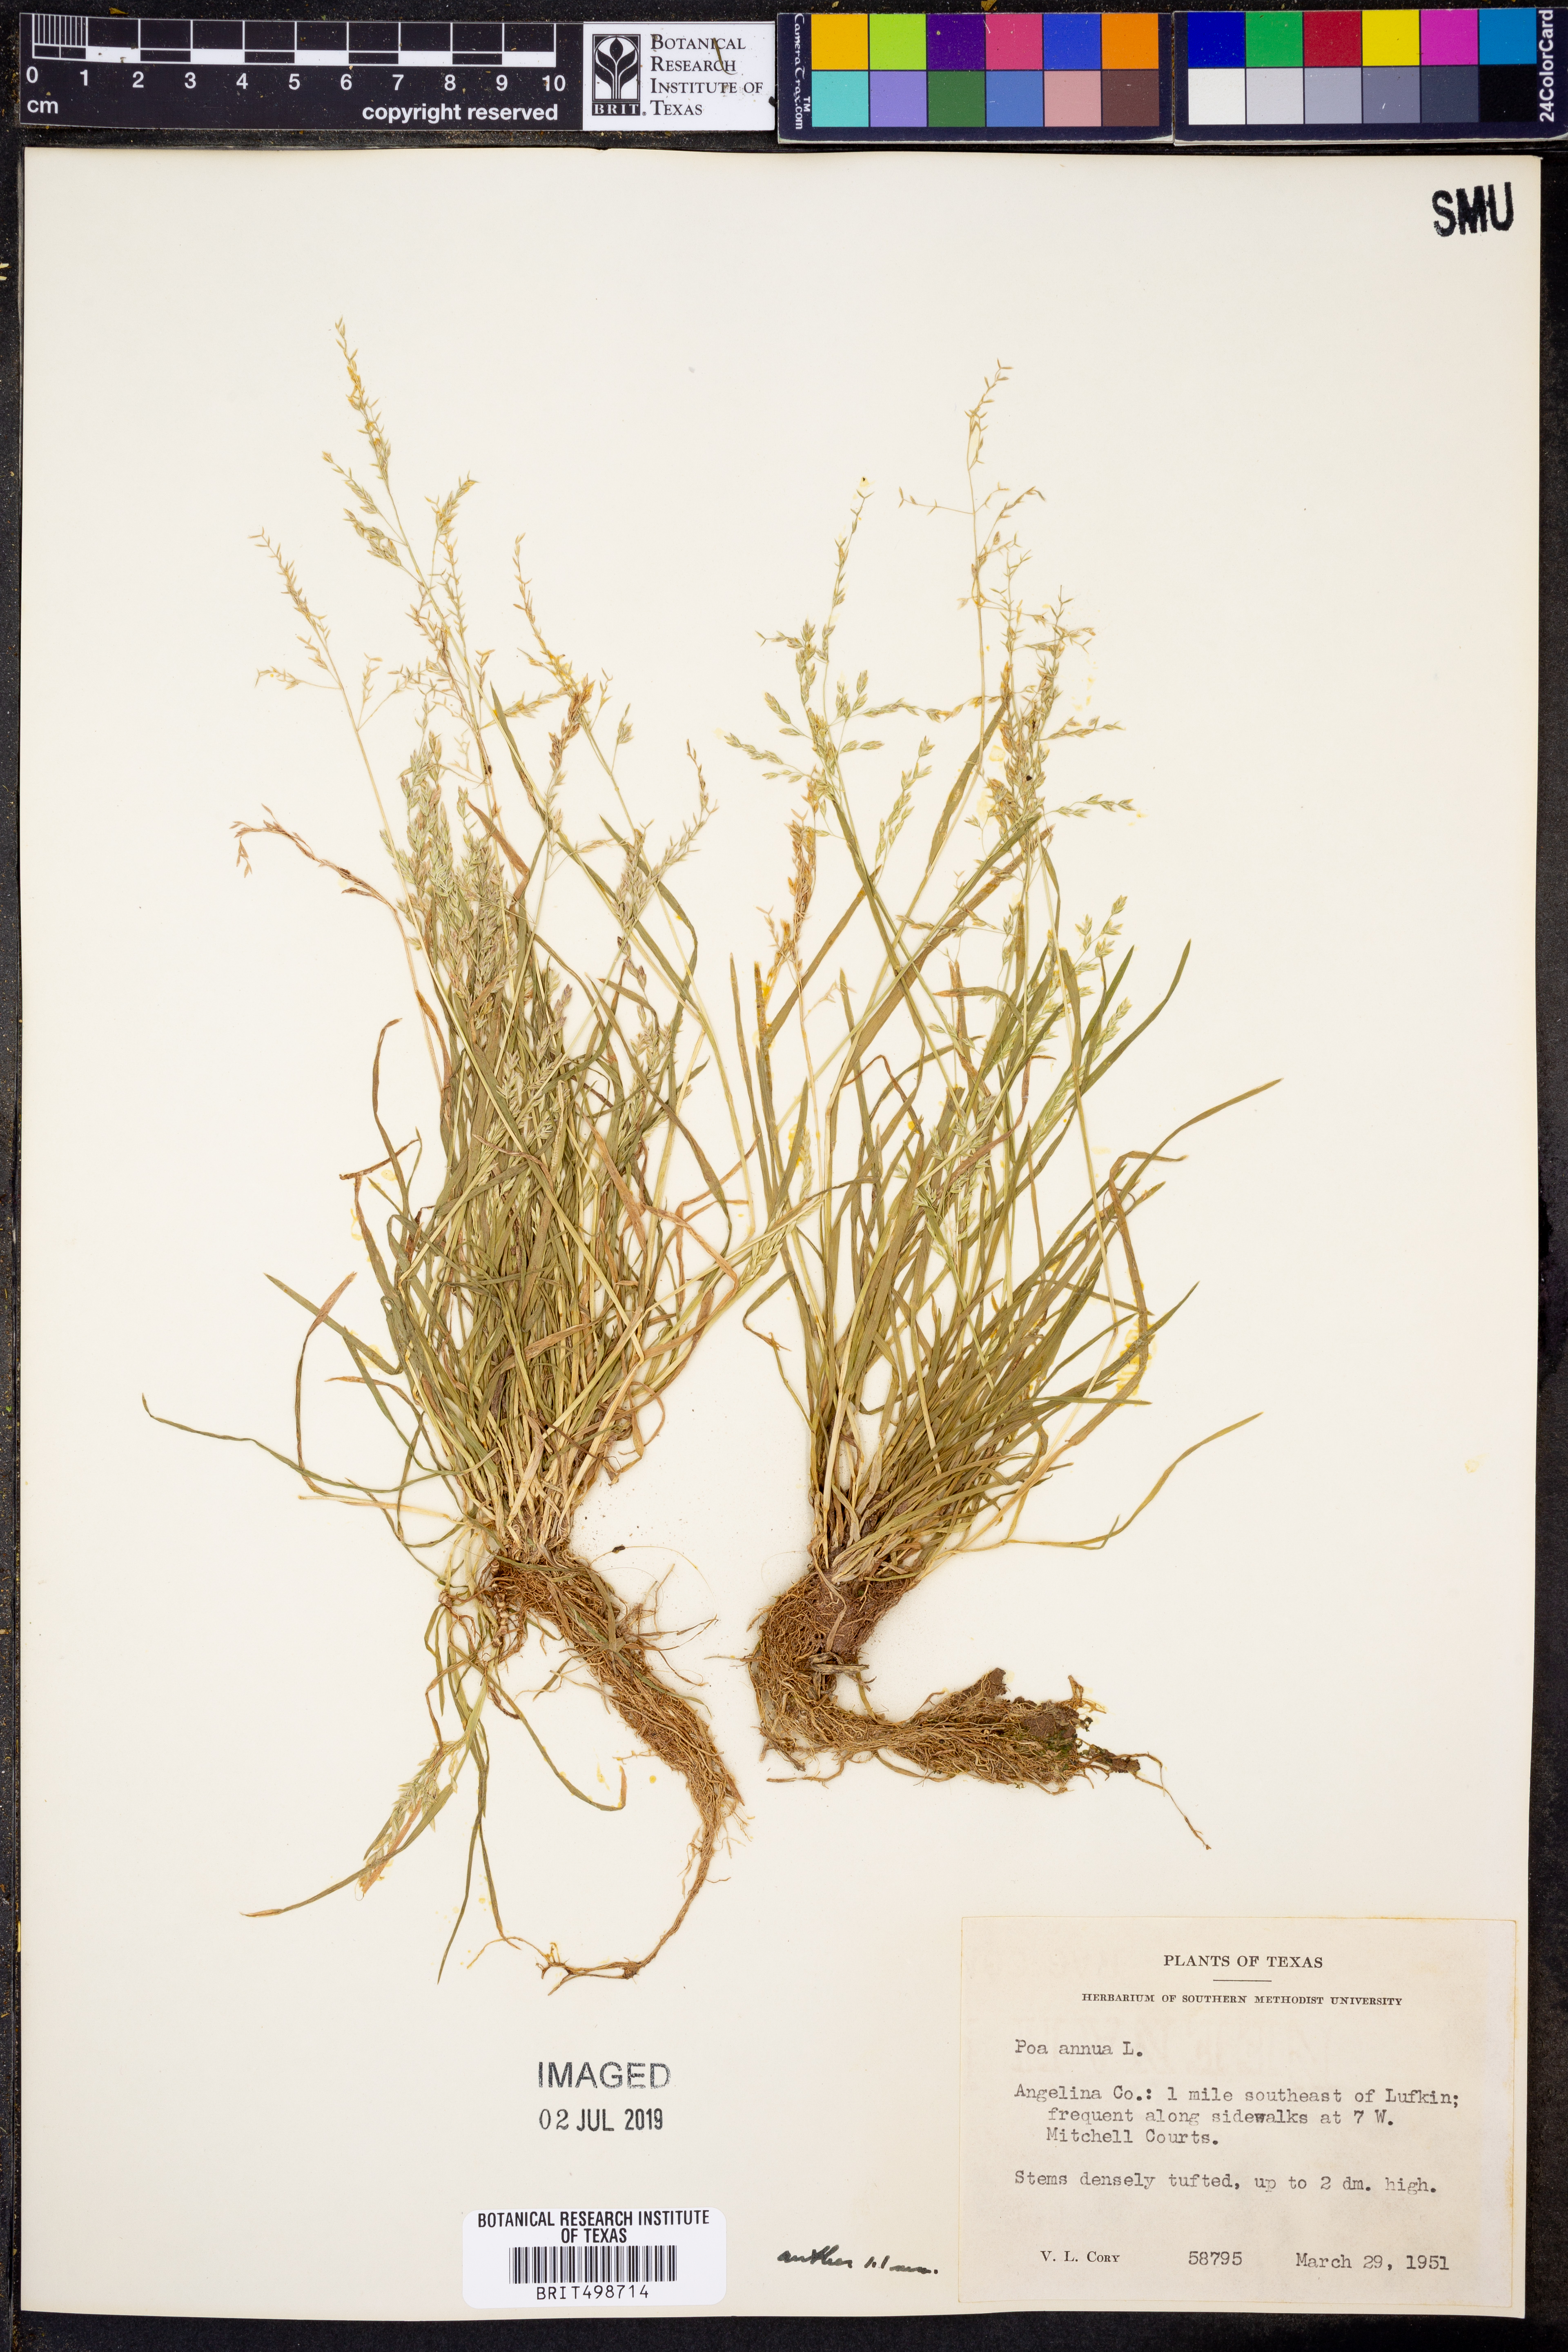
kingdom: Plantae
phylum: Tracheophyta
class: Liliopsida
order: Poales
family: Poaceae
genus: Poa
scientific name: Poa annua
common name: Annual bluegrass
